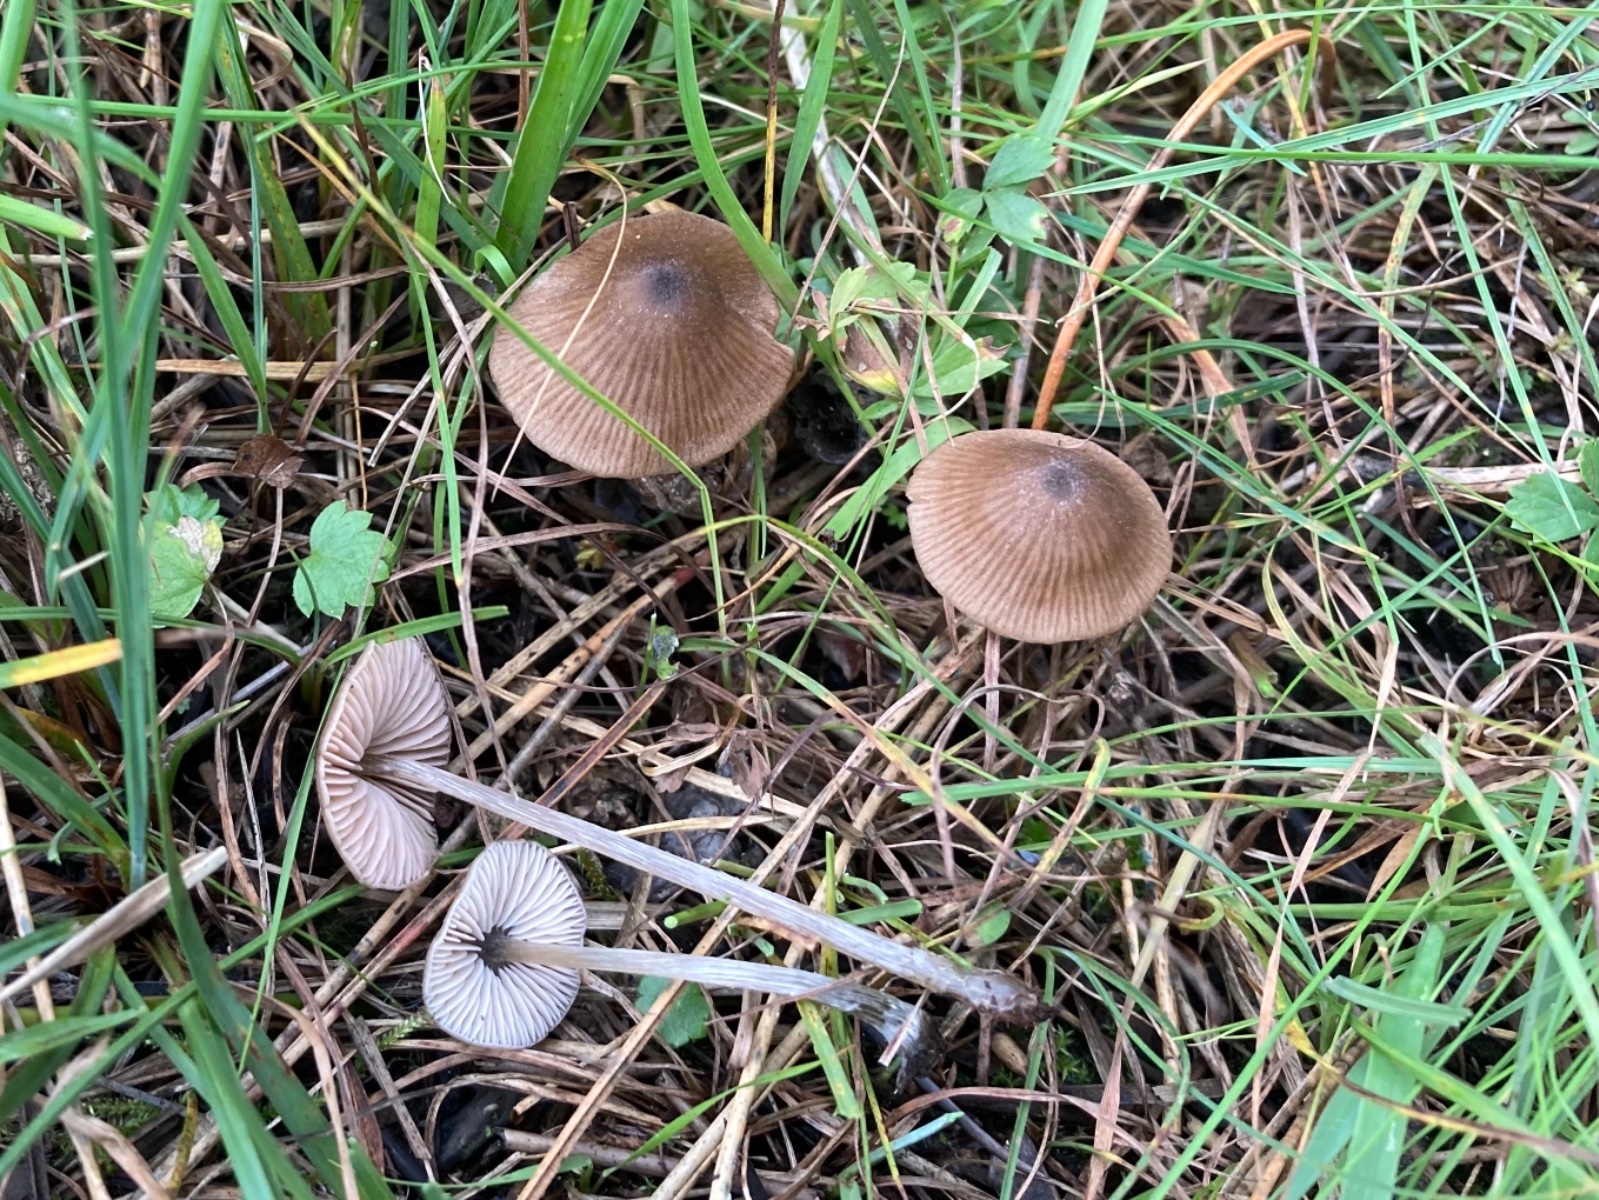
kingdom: Fungi
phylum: Basidiomycota
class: Agaricomycetes
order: Agaricales
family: Entolomataceae
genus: Entoloma
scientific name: Entoloma
